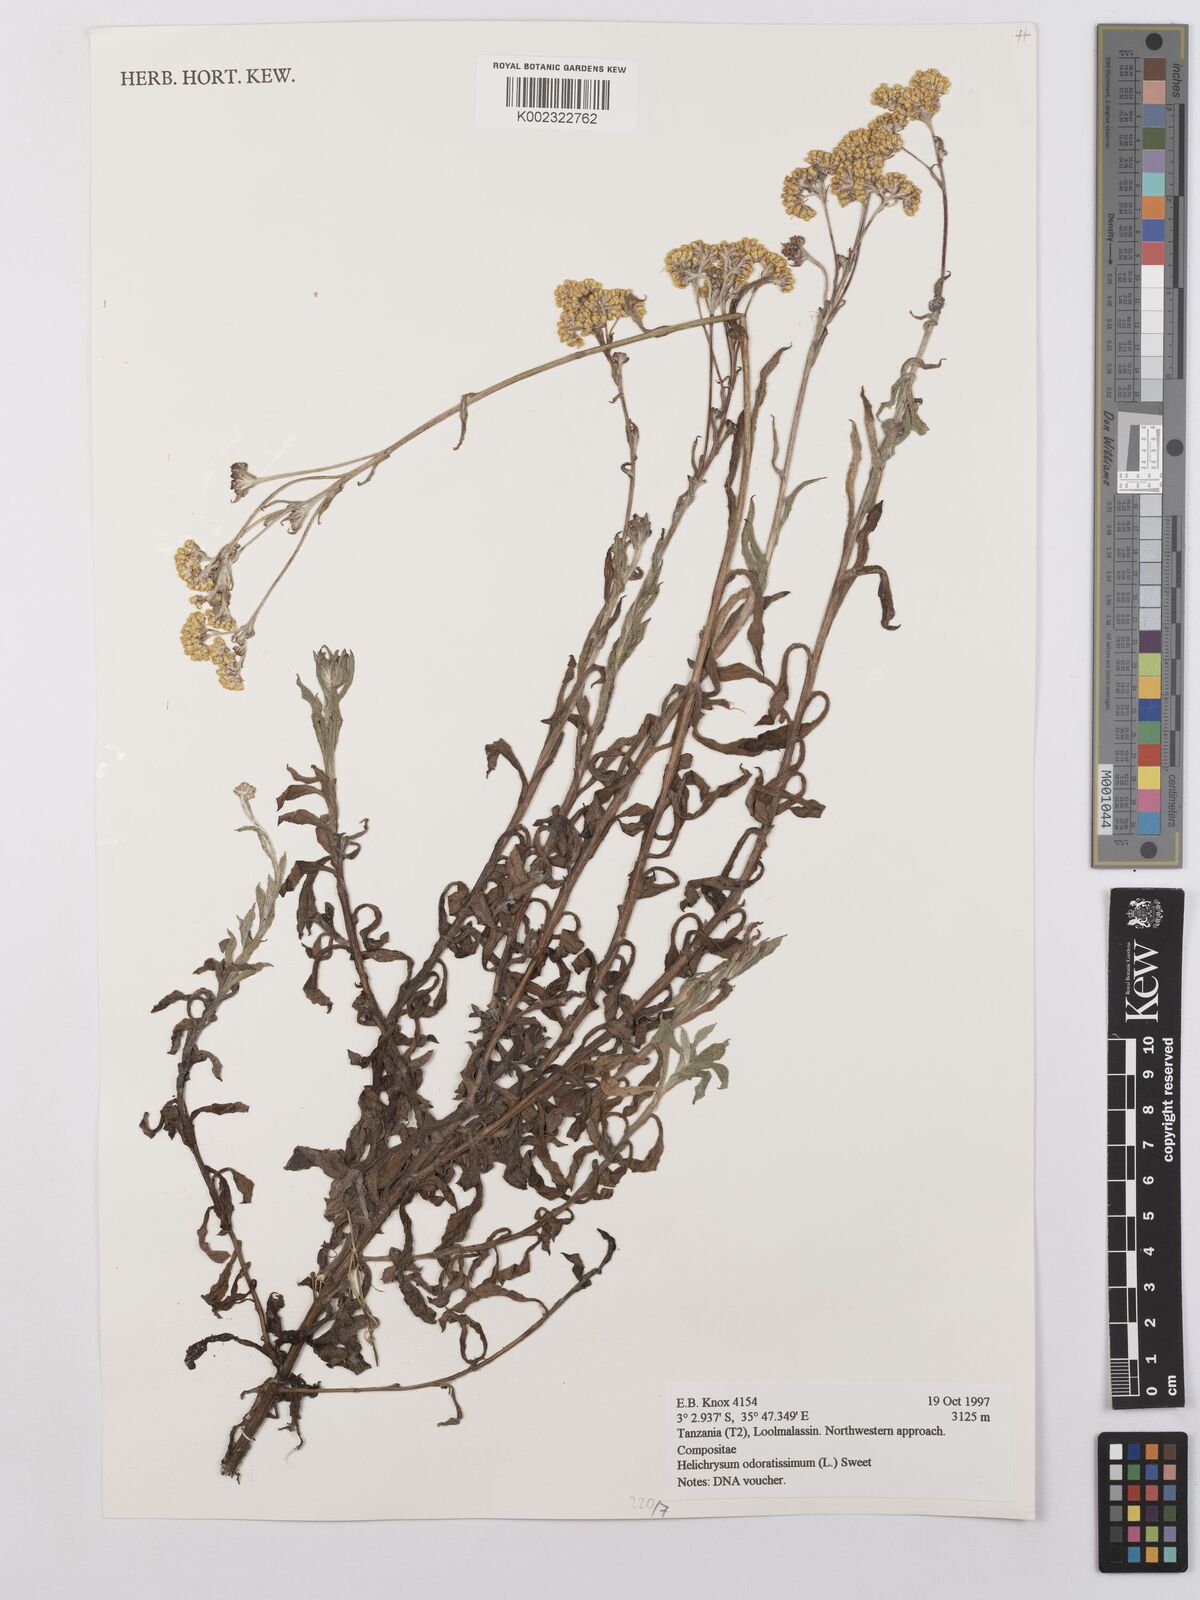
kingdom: Plantae
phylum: Tracheophyta
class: Magnoliopsida
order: Asterales
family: Asteraceae
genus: Helichrysum
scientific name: Helichrysum odoratissimum
